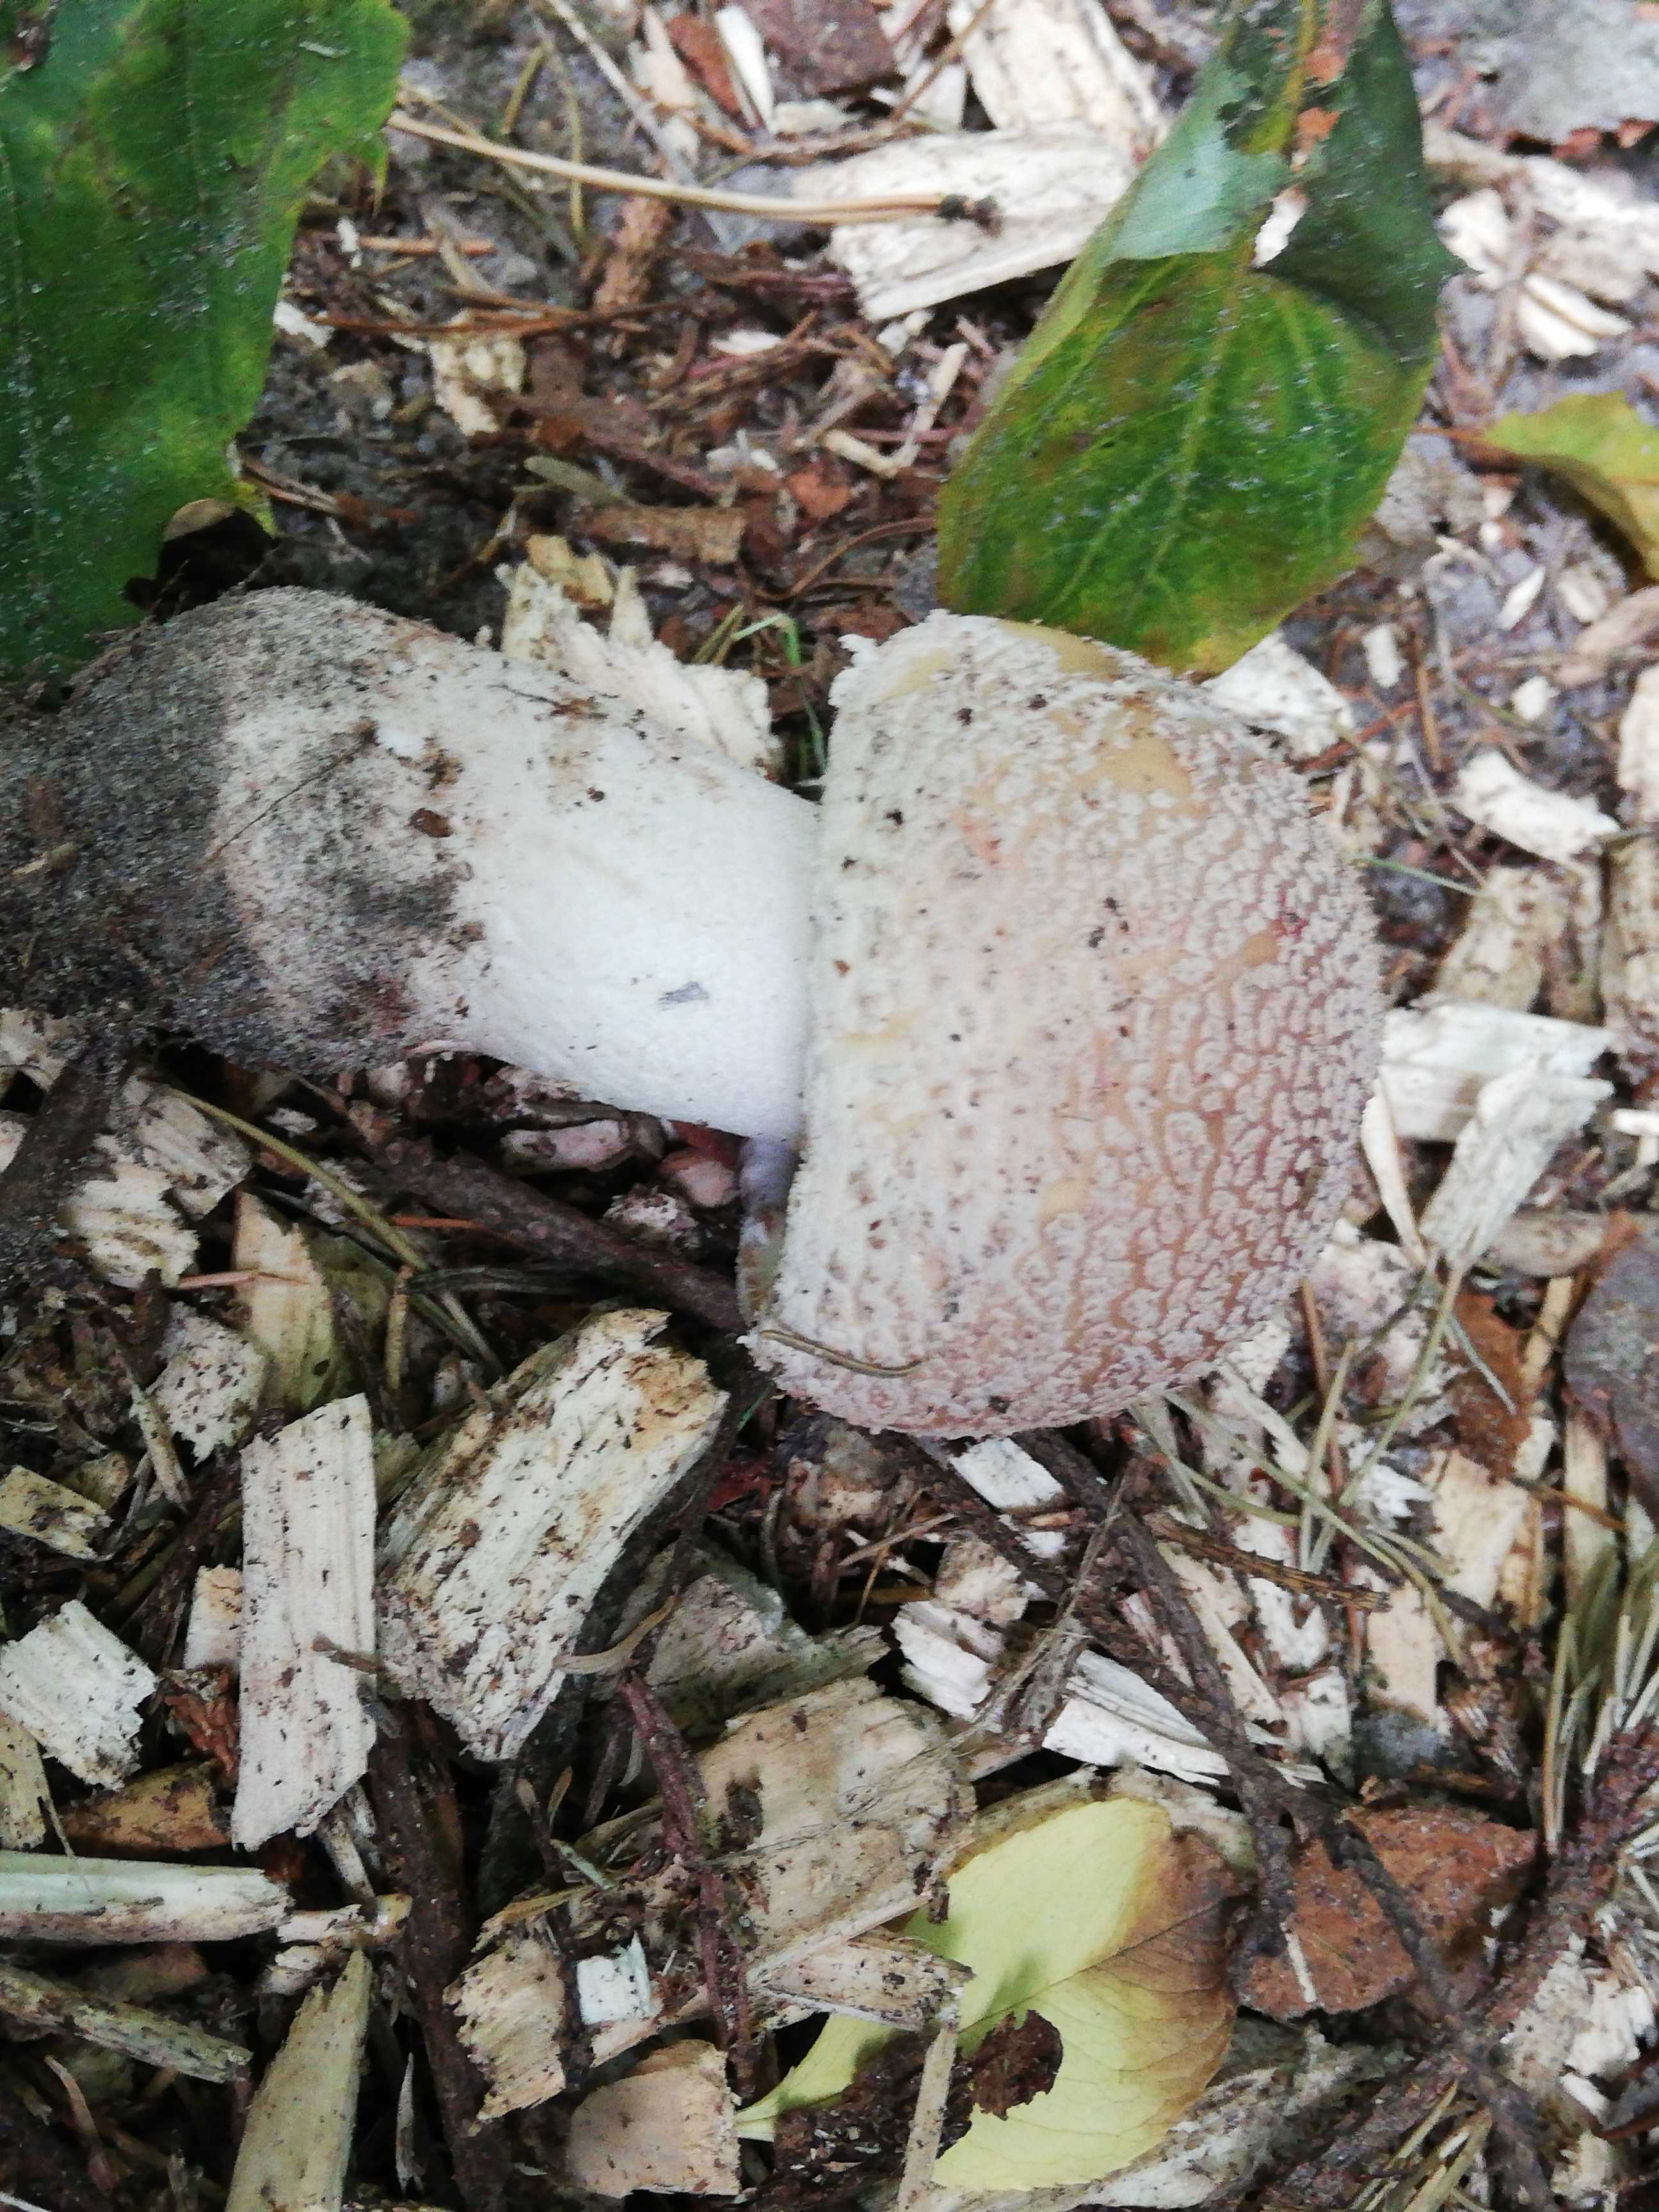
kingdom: Fungi
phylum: Basidiomycota
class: Agaricomycetes
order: Agaricales
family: Amanitaceae
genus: Amanita
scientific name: Amanita rubescens
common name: rødmende fluesvamp
